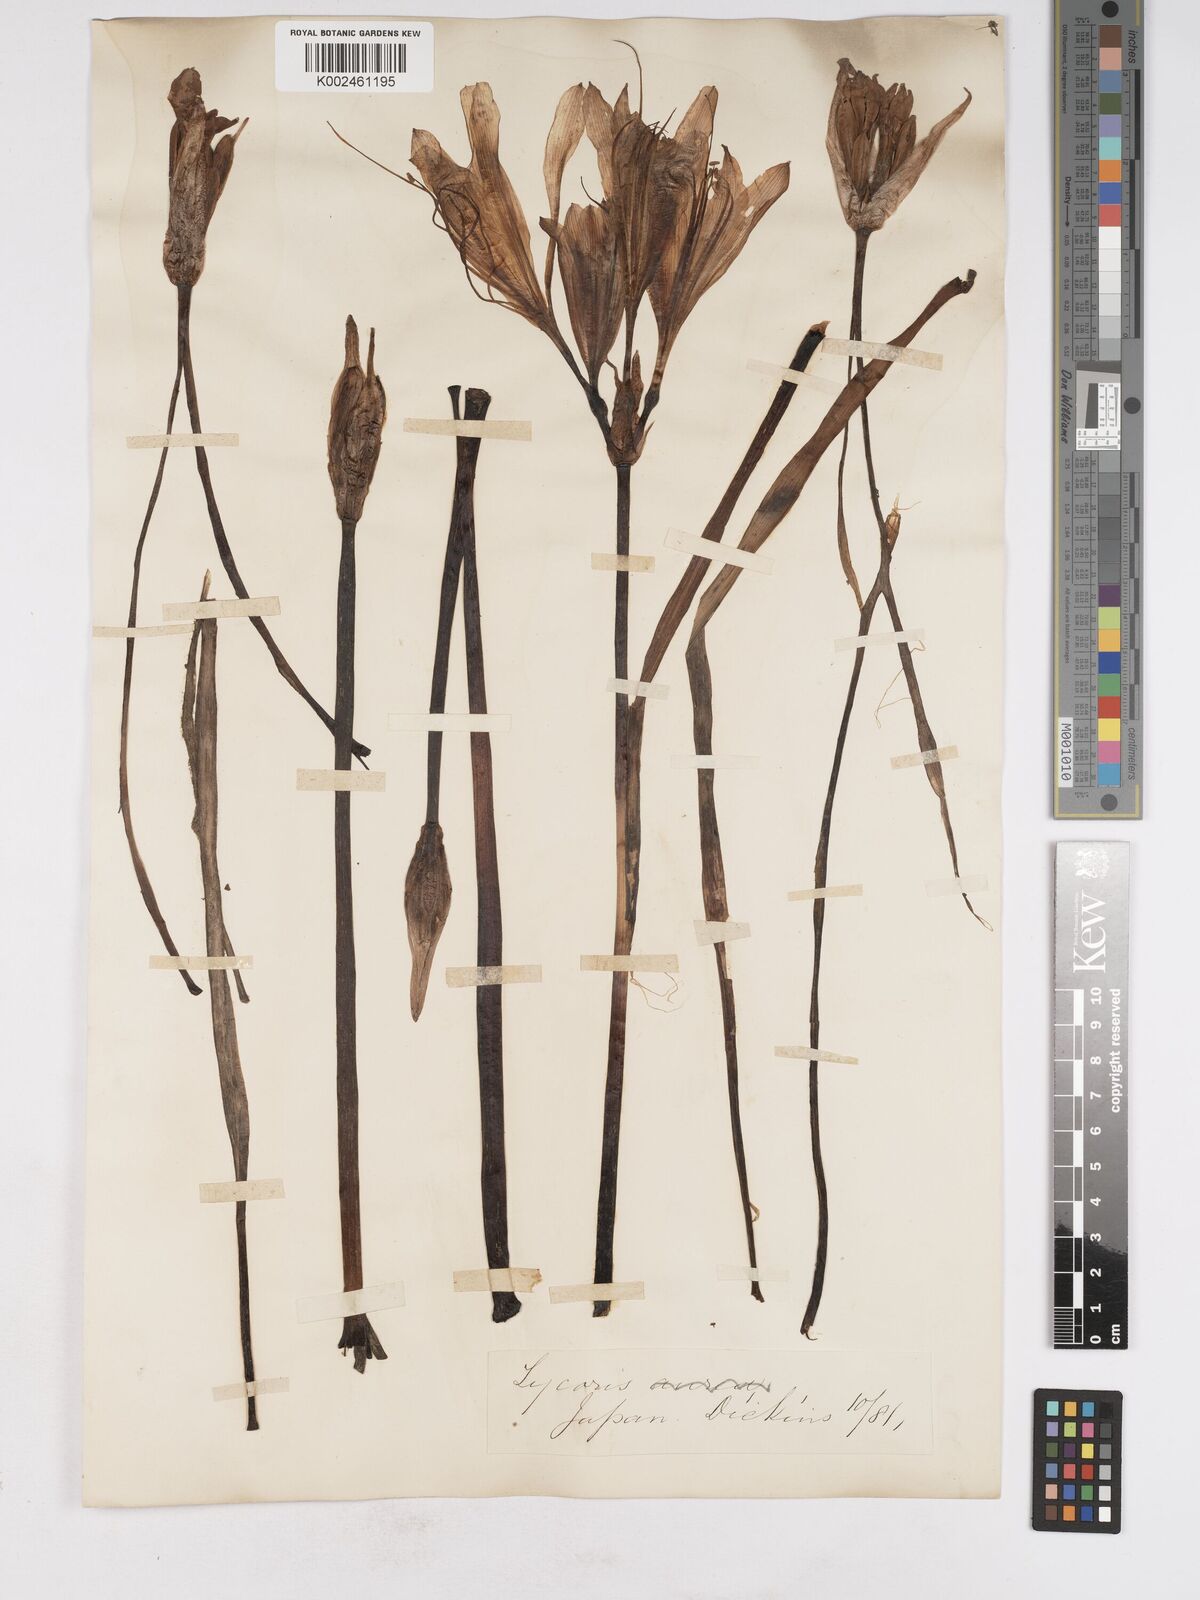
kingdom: Plantae
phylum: Tracheophyta
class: Liliopsida
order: Asparagales
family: Amaryllidaceae
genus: Lycoris
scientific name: Lycoris squamigera
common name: Magic-lily
